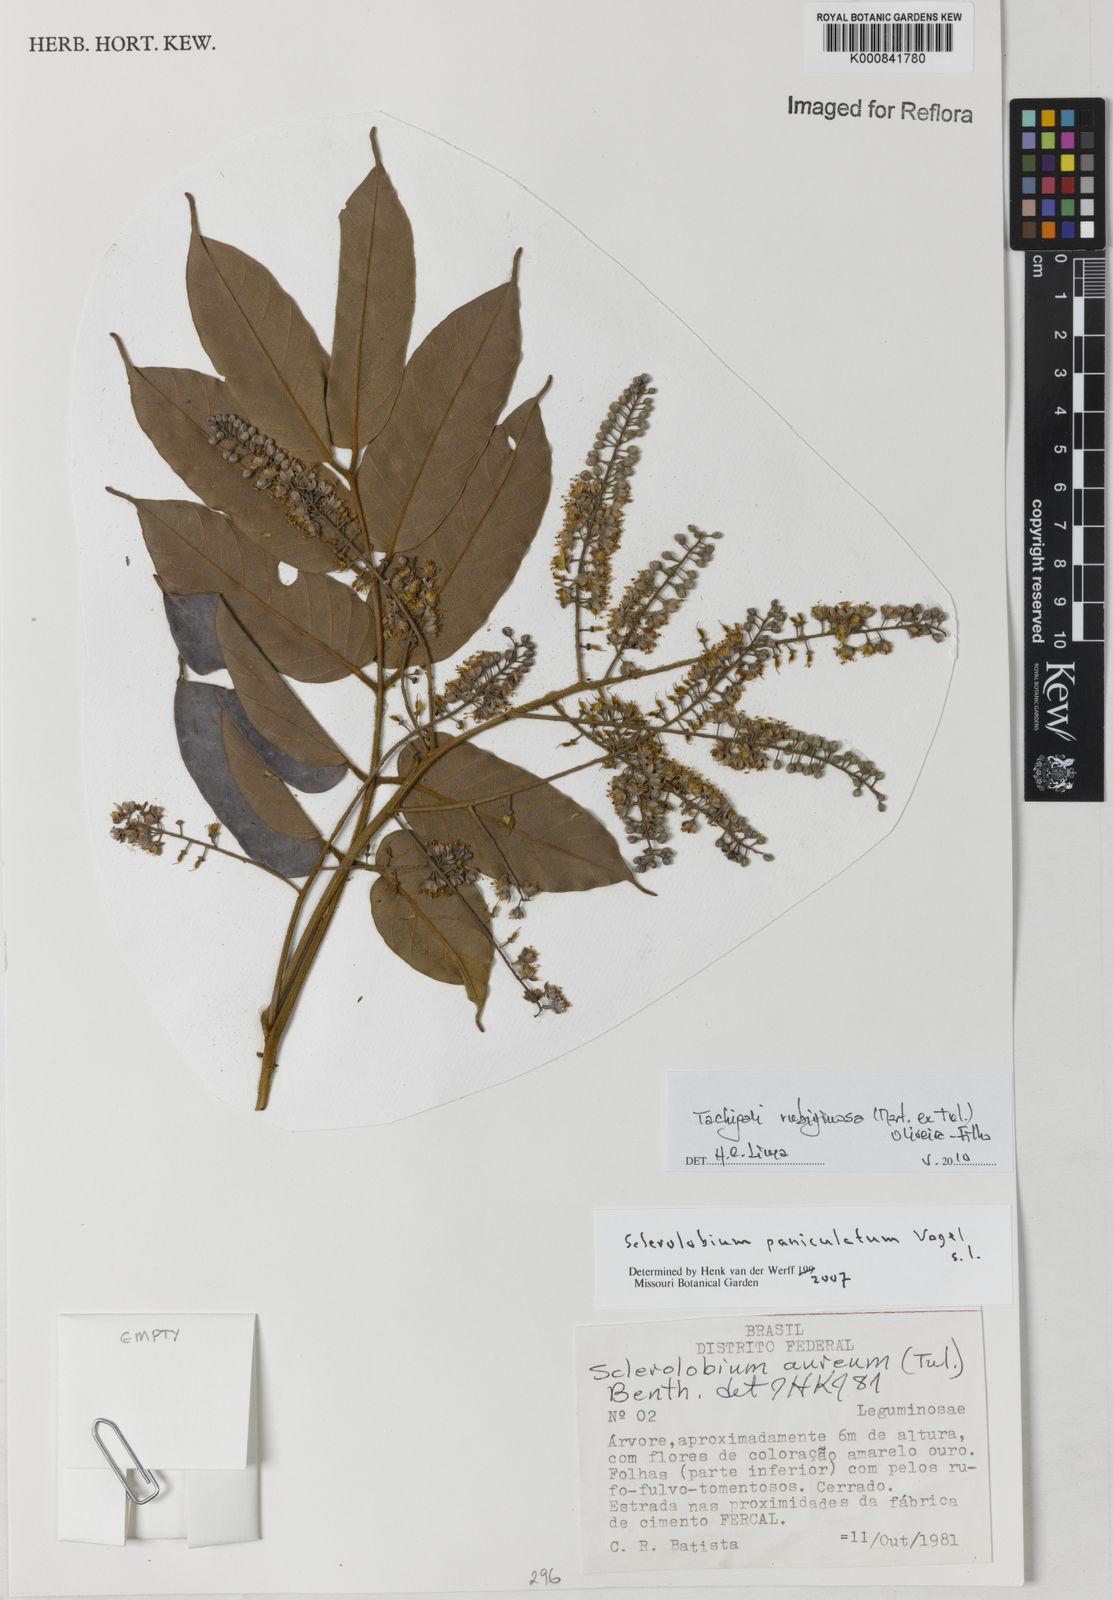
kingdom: Plantae
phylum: Tracheophyta
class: Magnoliopsida
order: Fabales
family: Fabaceae
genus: Tachigali
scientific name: Tachigali rubiginosa
